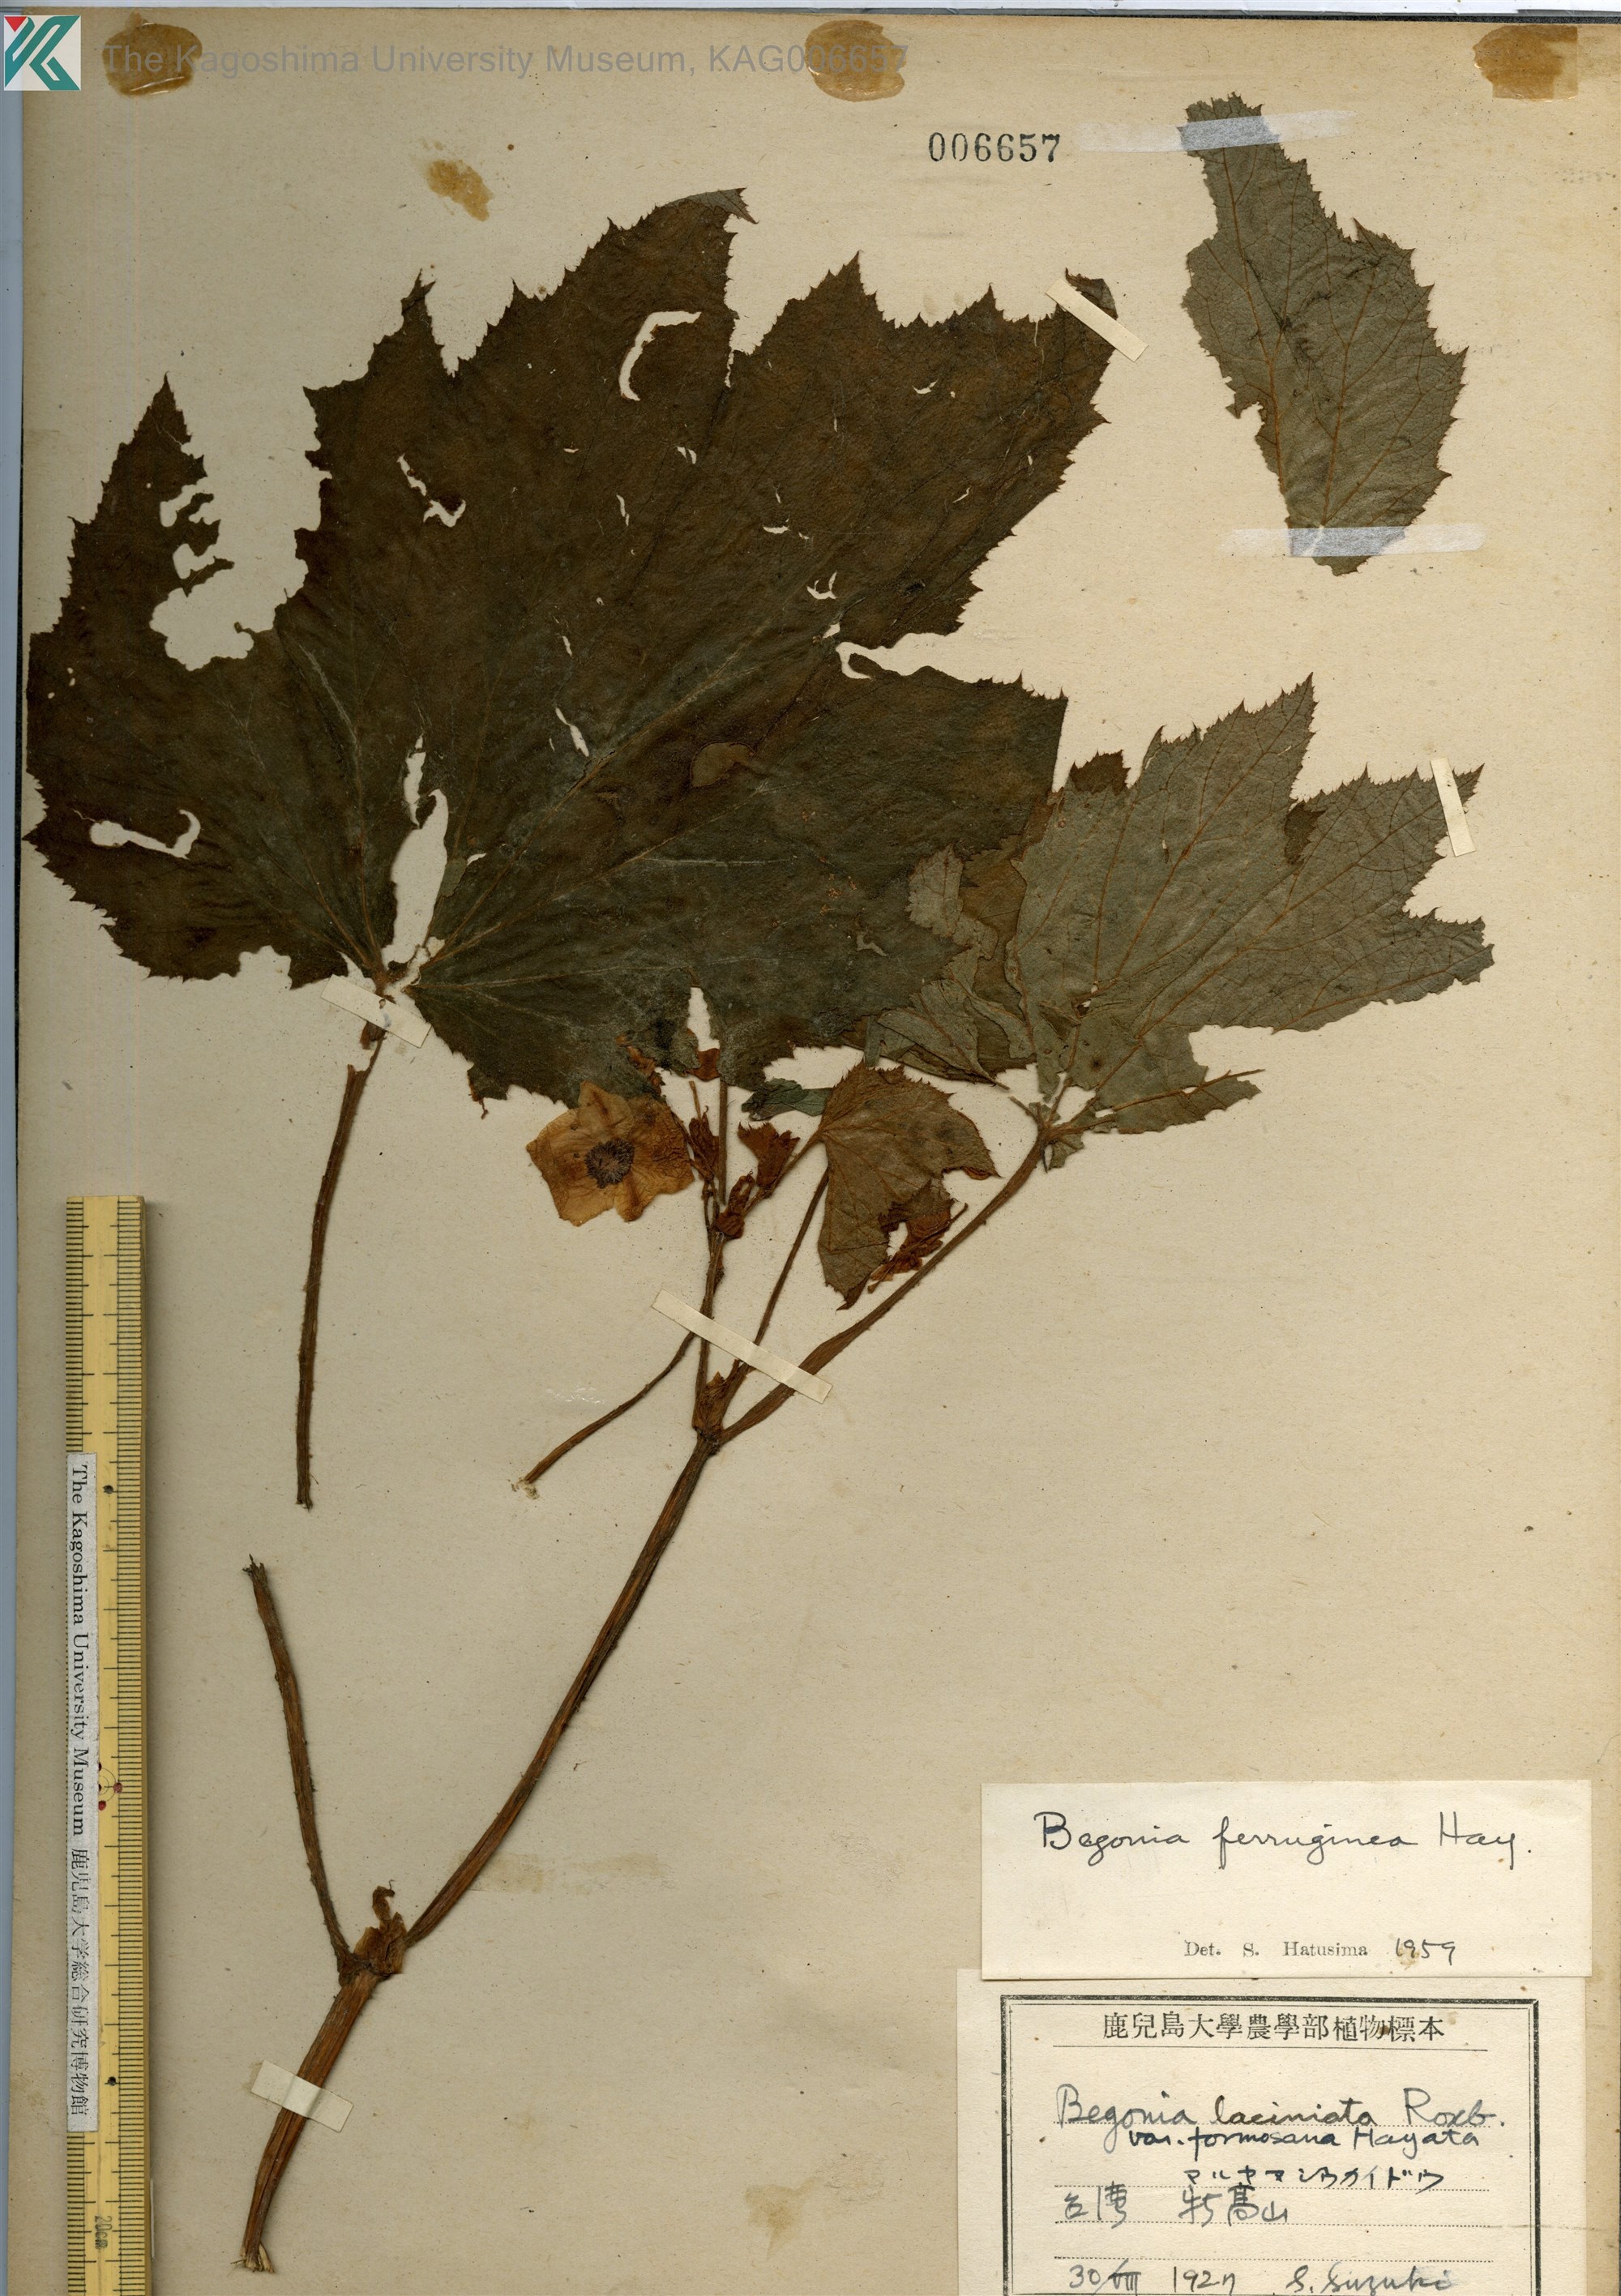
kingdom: Plantae
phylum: Tracheophyta
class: Magnoliopsida
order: Cucurbitales
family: Begoniaceae
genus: Begonia
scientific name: Begonia ferruginea
